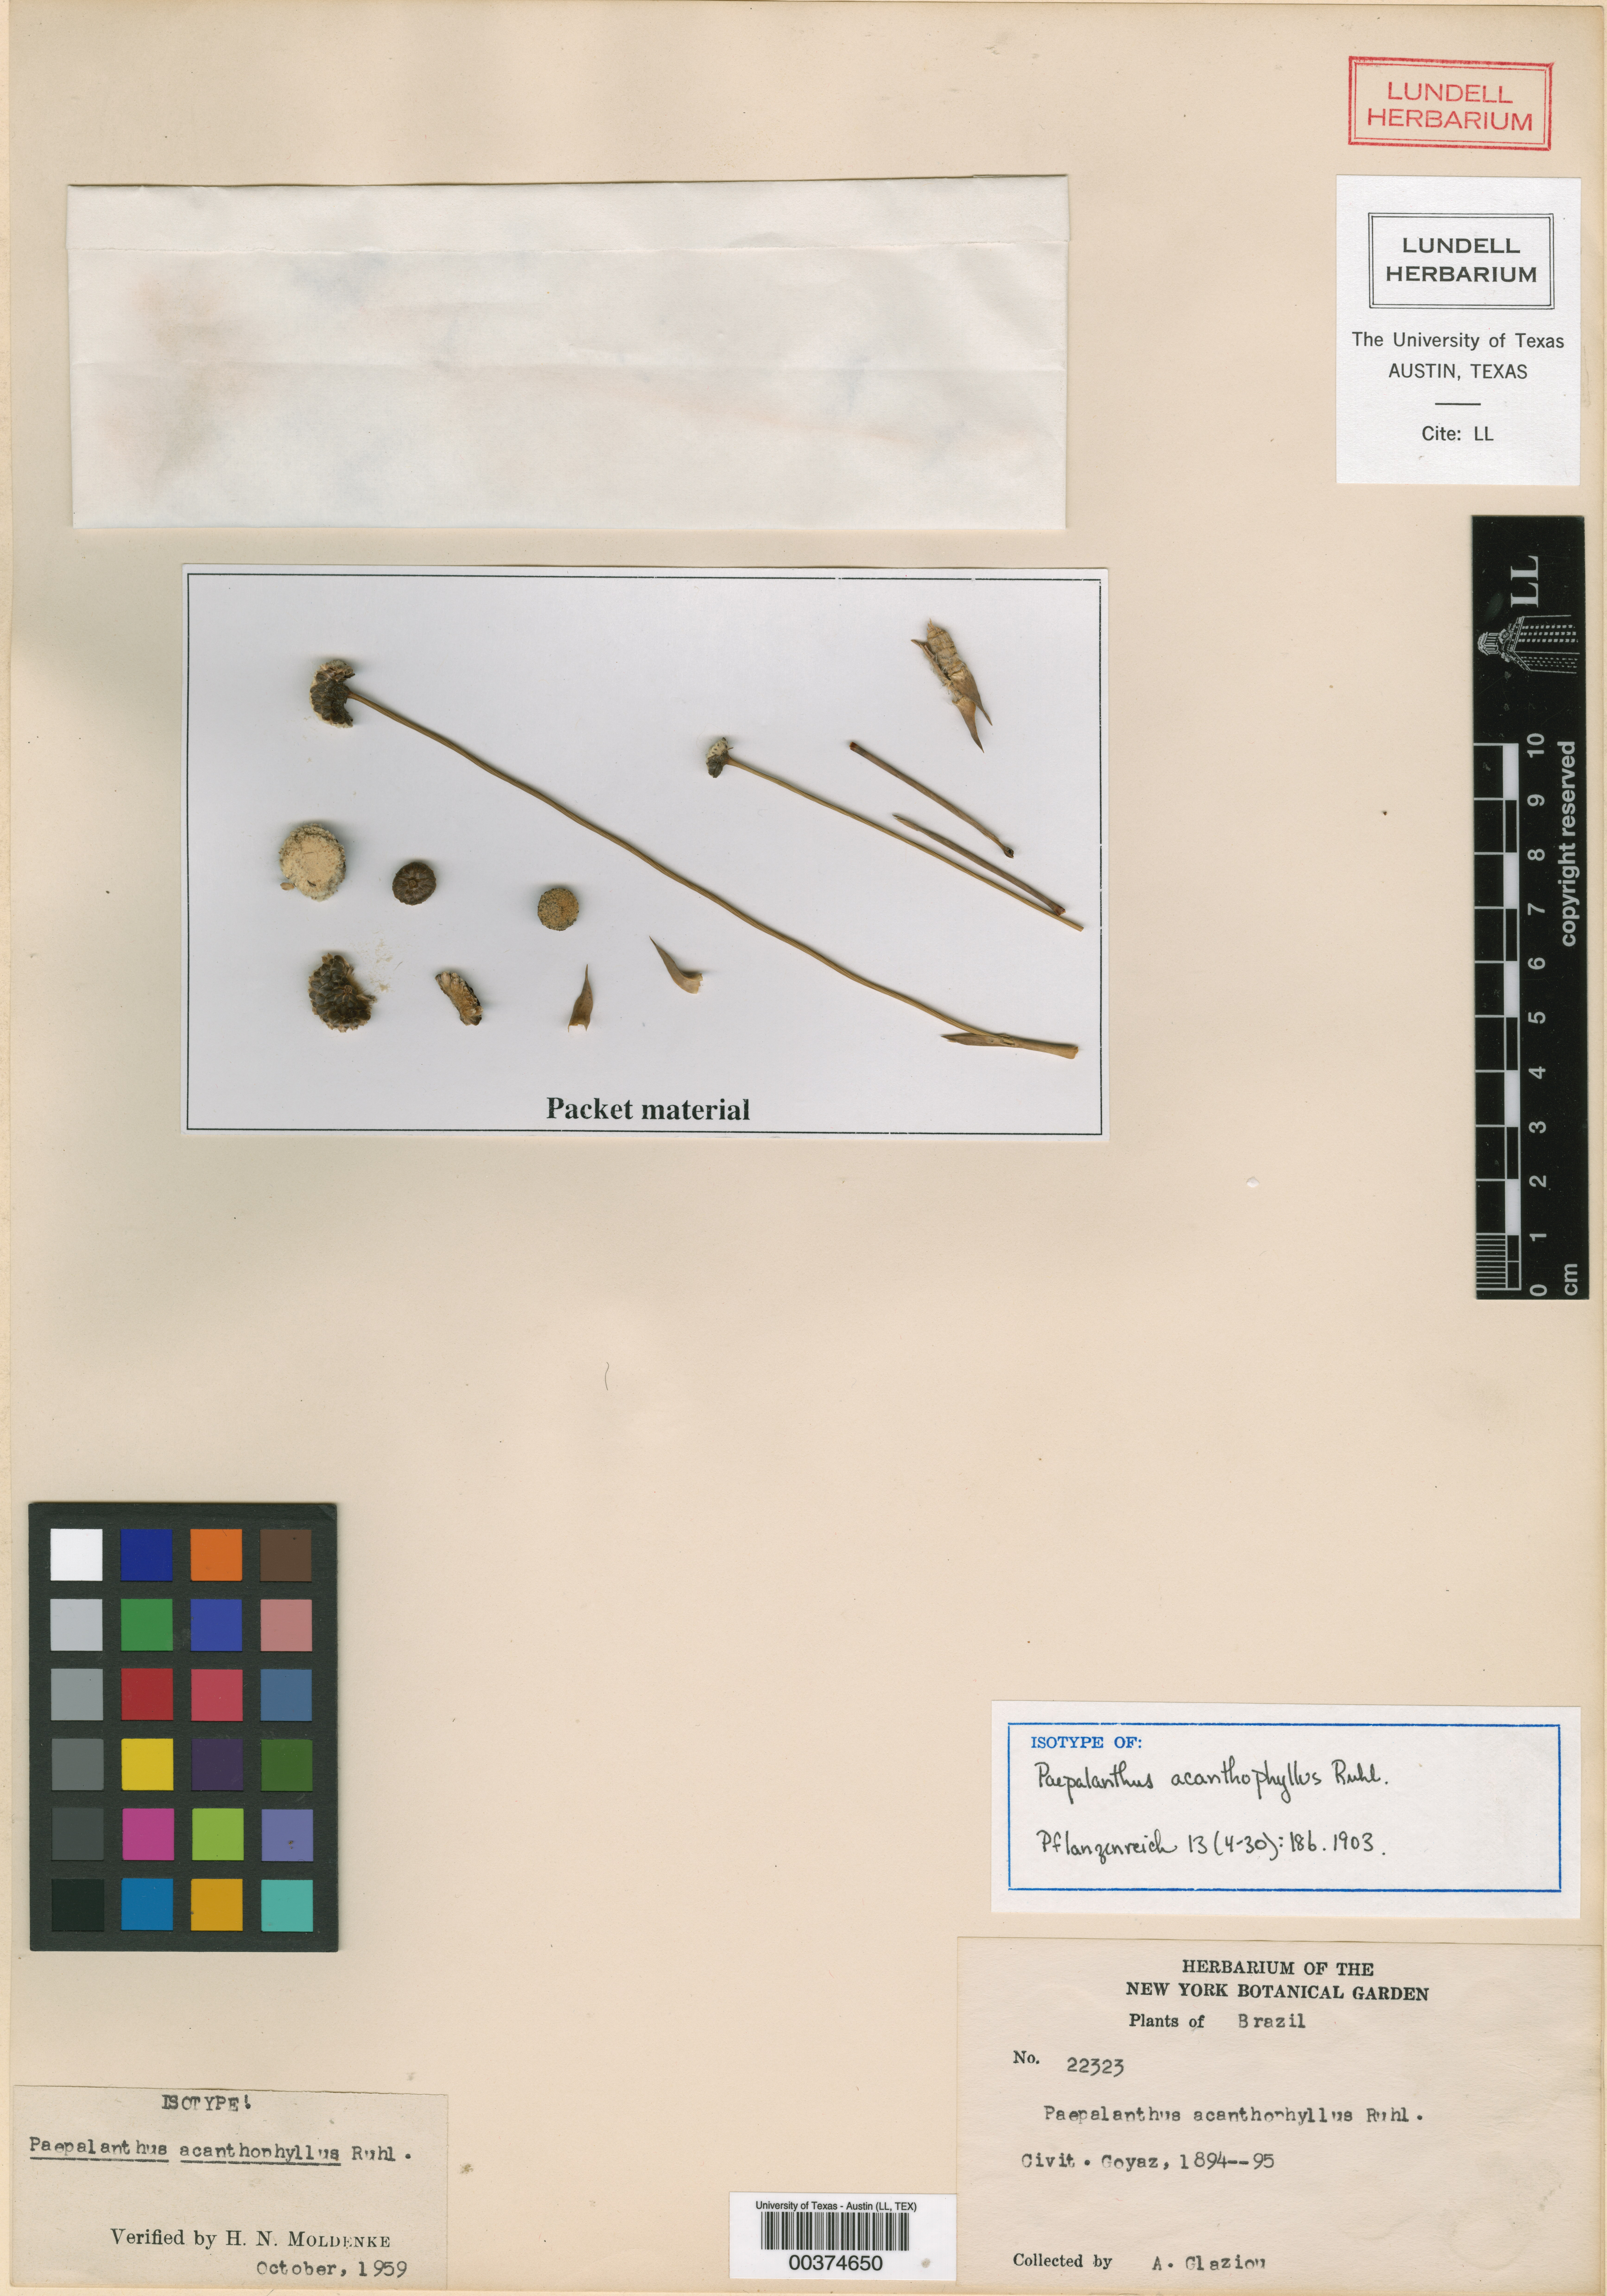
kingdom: Plantae
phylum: Tracheophyta
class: Liliopsida
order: Poales
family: Eriocaulaceae
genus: Paepalanthus
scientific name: Paepalanthus acanthophyllus
